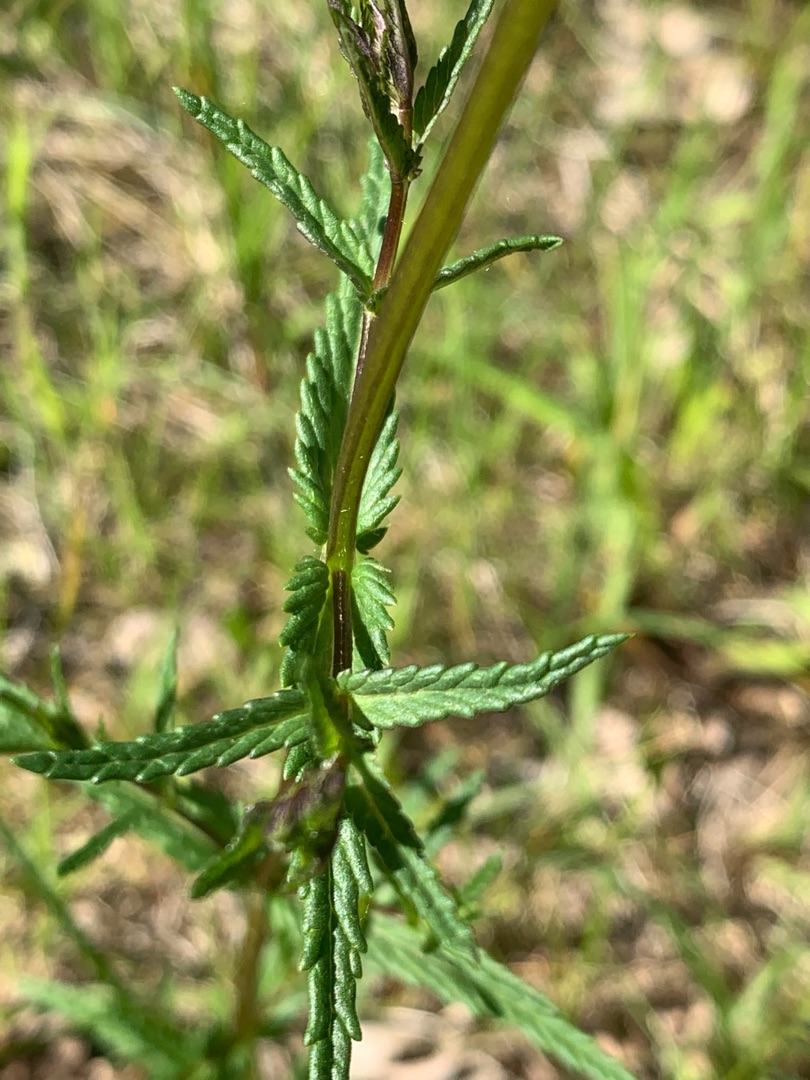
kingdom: Plantae
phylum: Tracheophyta
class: Magnoliopsida
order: Lamiales
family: Orobanchaceae
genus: Rhinanthus
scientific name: Rhinanthus minor
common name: Liden skjaller
